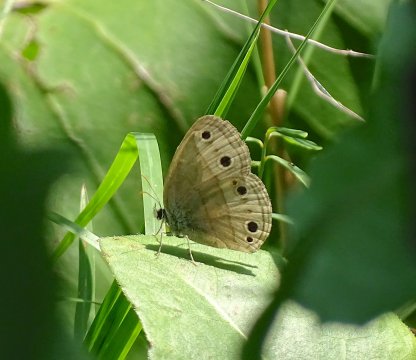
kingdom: Animalia
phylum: Arthropoda
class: Insecta
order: Lepidoptera
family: Nymphalidae
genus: Euptychia
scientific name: Euptychia cymela
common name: Little Wood Satyr
